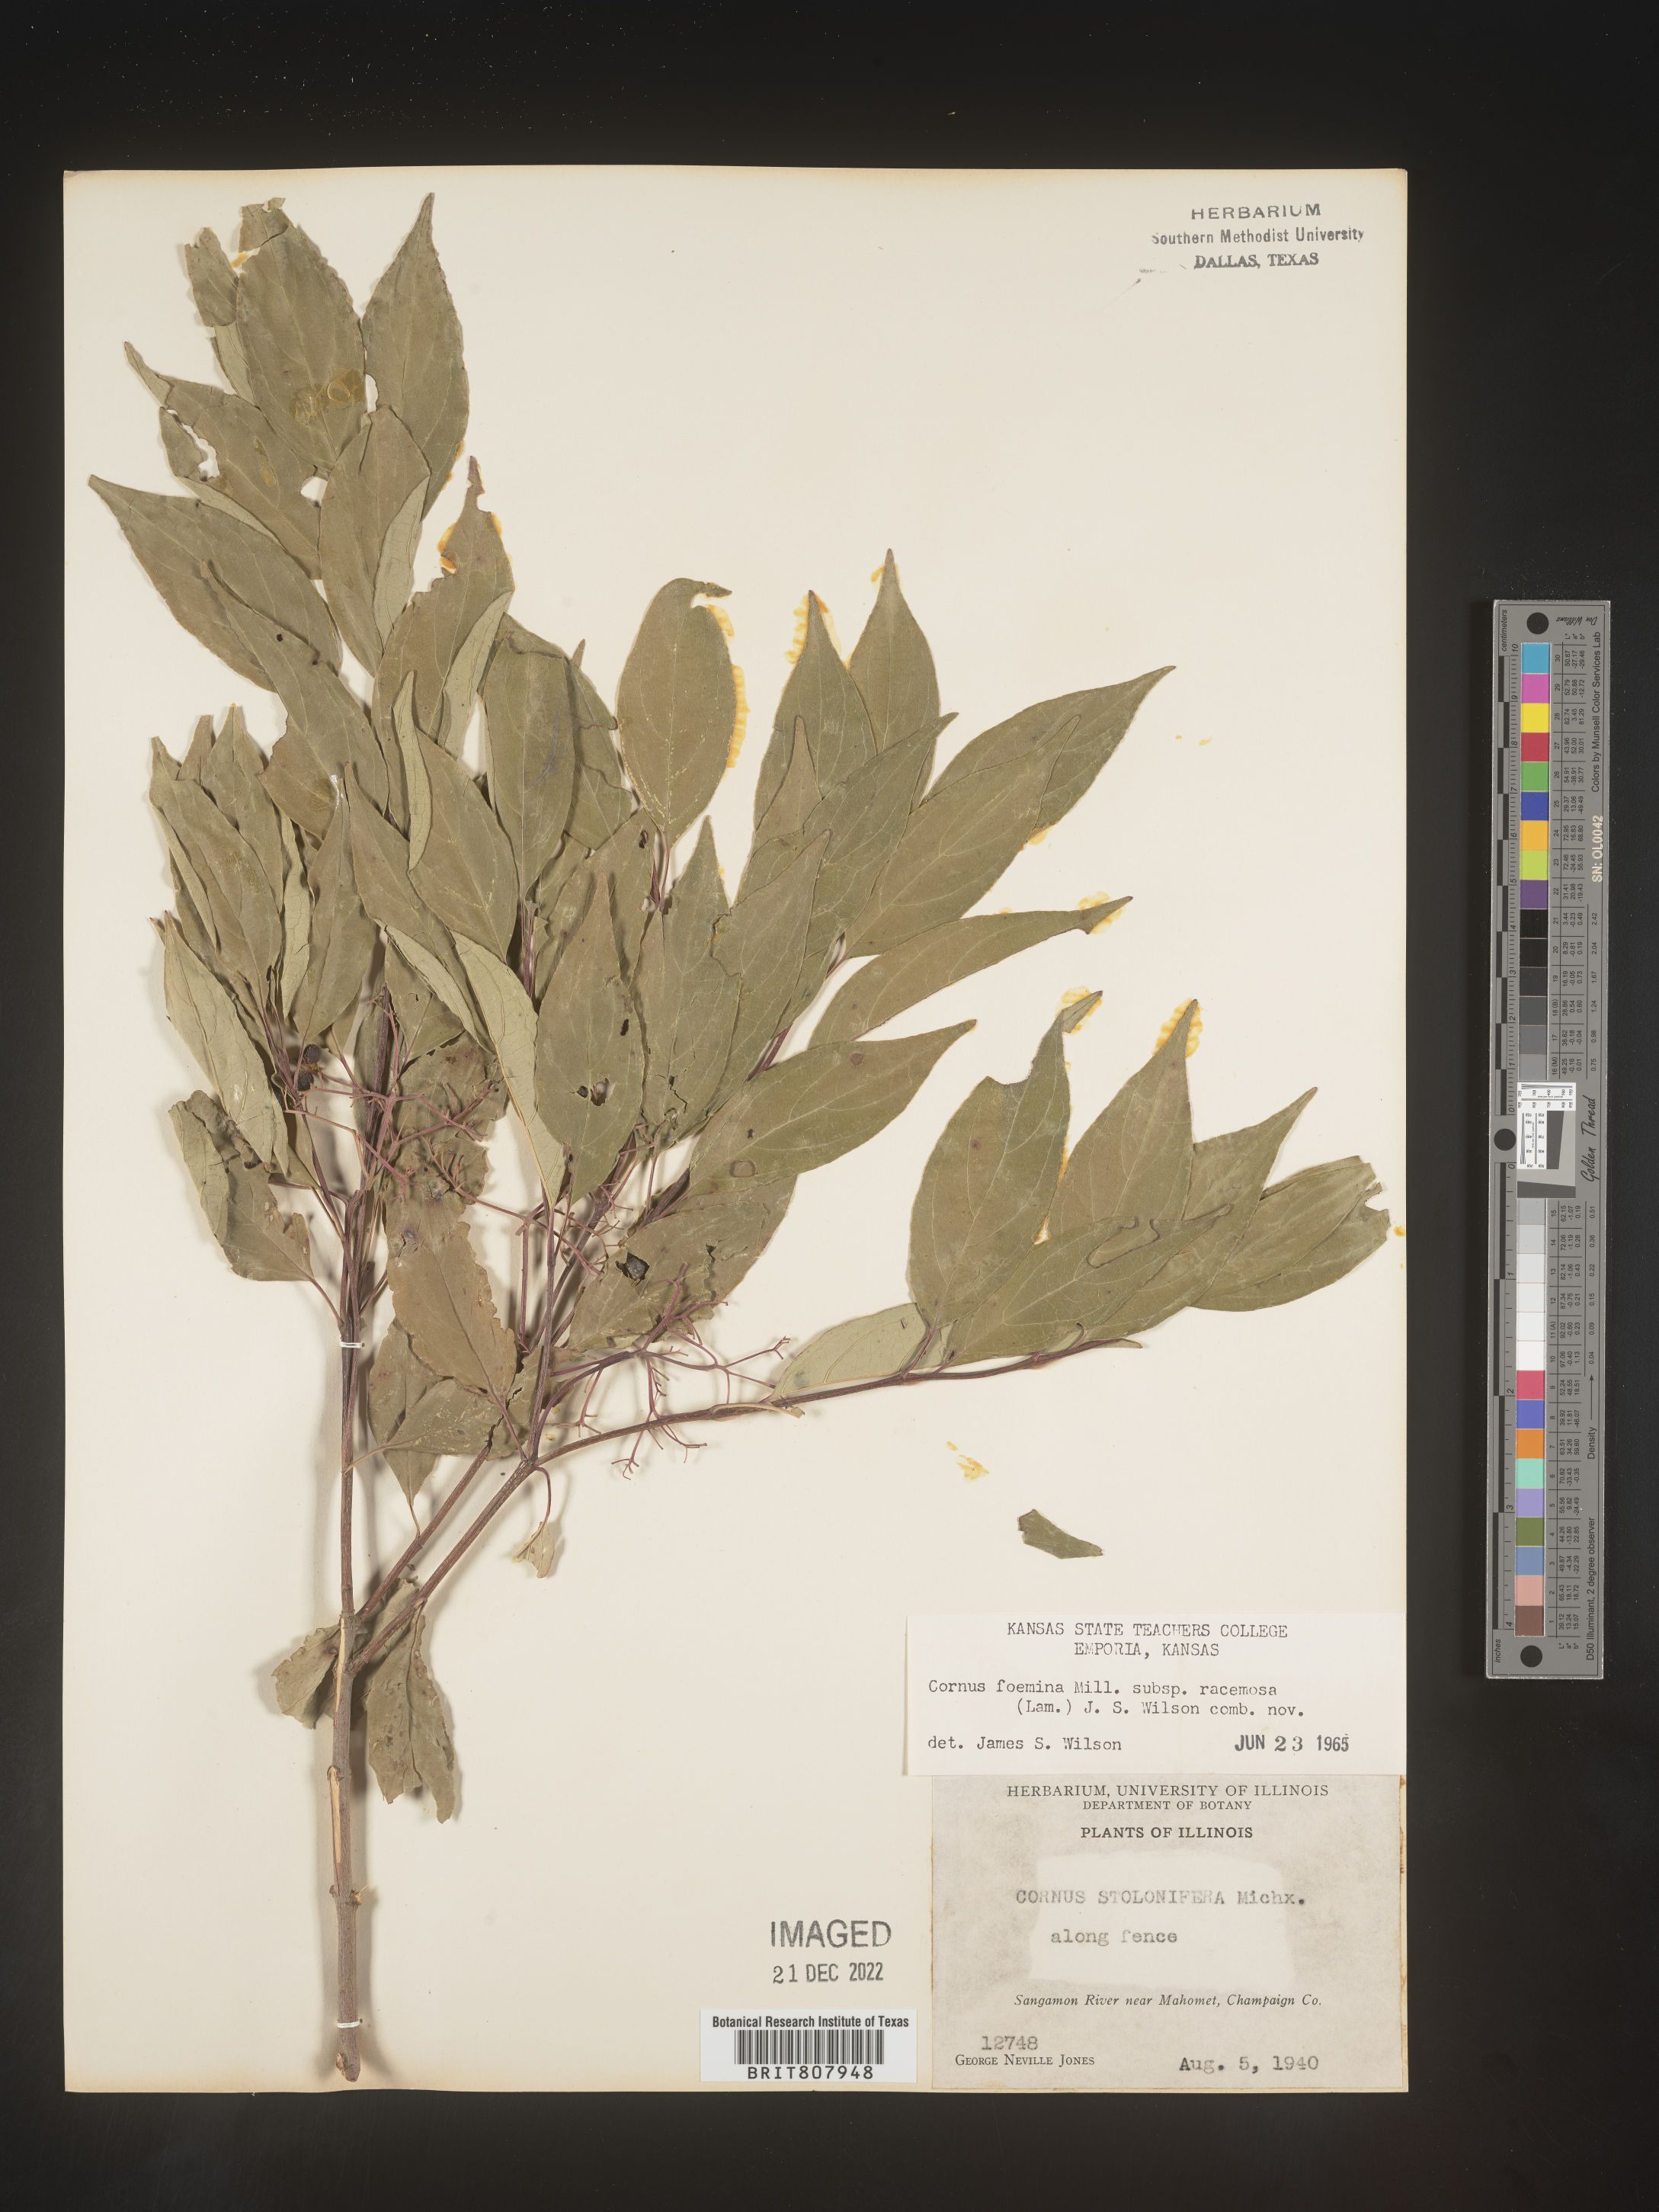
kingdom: Plantae
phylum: Tracheophyta
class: Magnoliopsida
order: Cornales
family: Cornaceae
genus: Cornus
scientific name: Cornus racemosa
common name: Panicled dogwood
